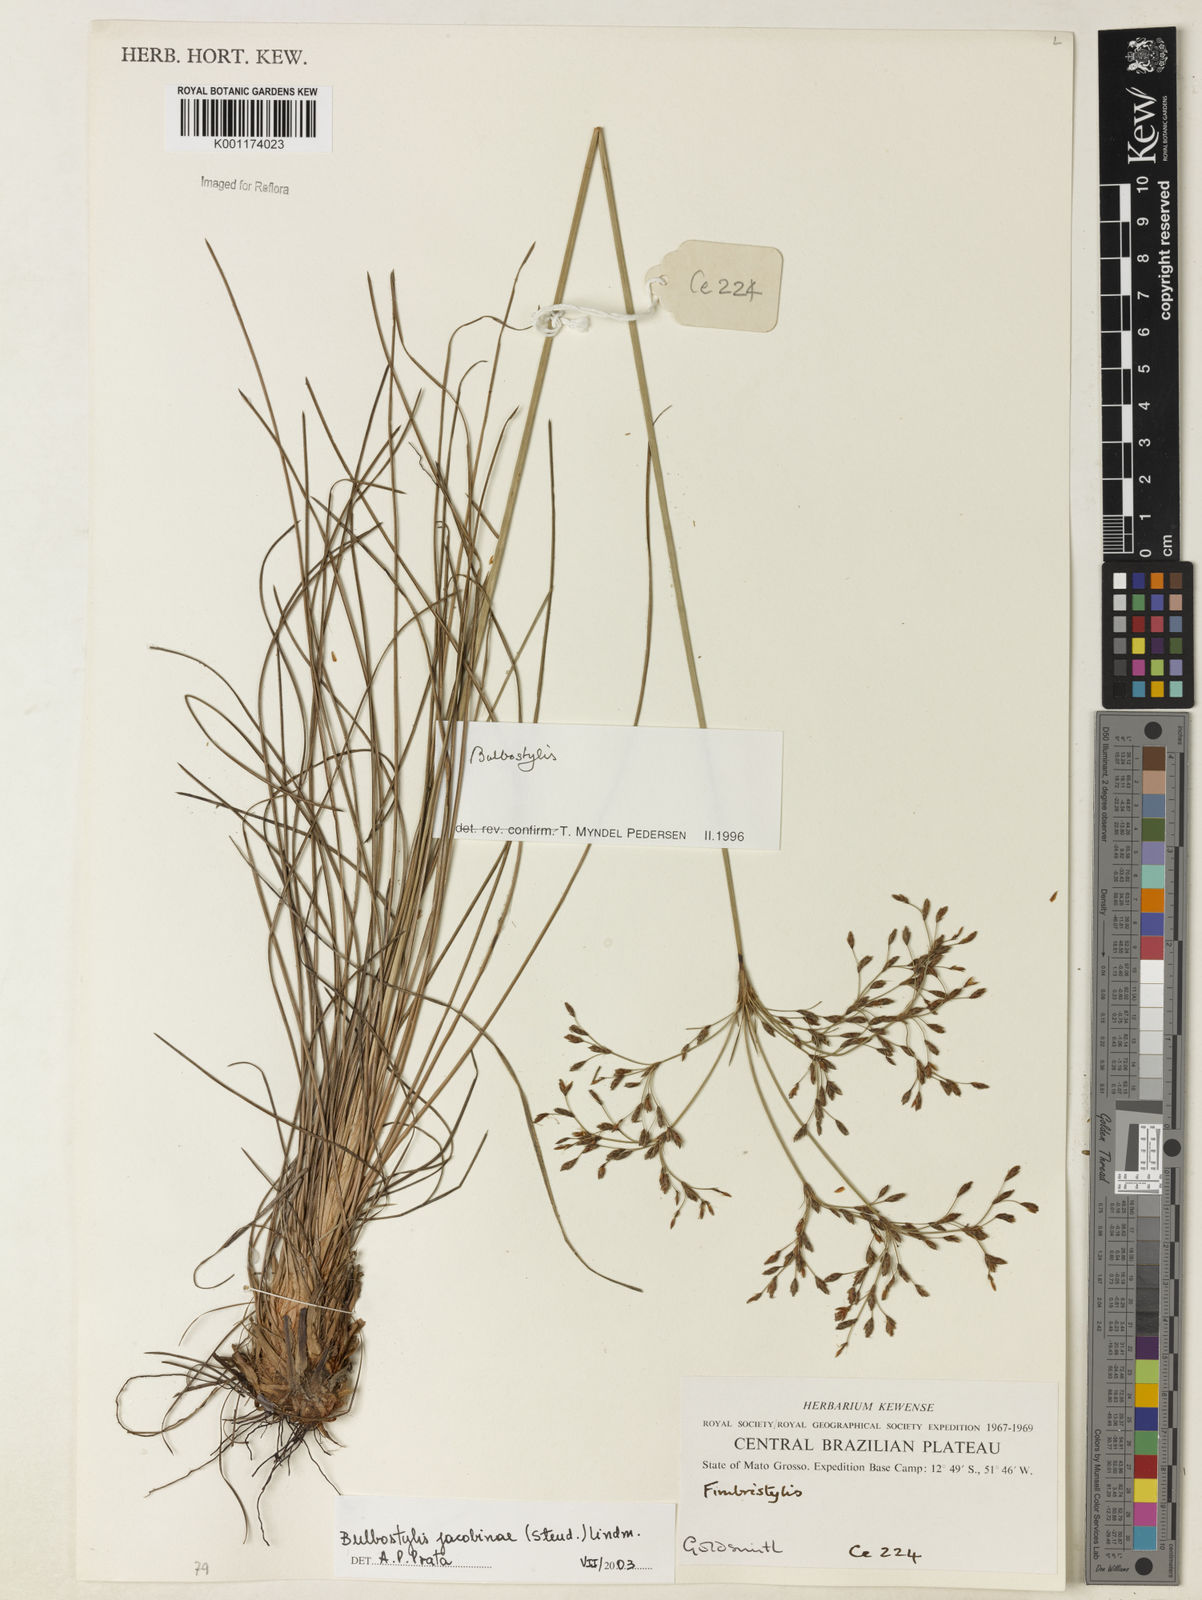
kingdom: Plantae
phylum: Tracheophyta
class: Liliopsida
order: Poales
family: Cyperaceae
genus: Bulbostylis
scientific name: Bulbostylis jacobinae
